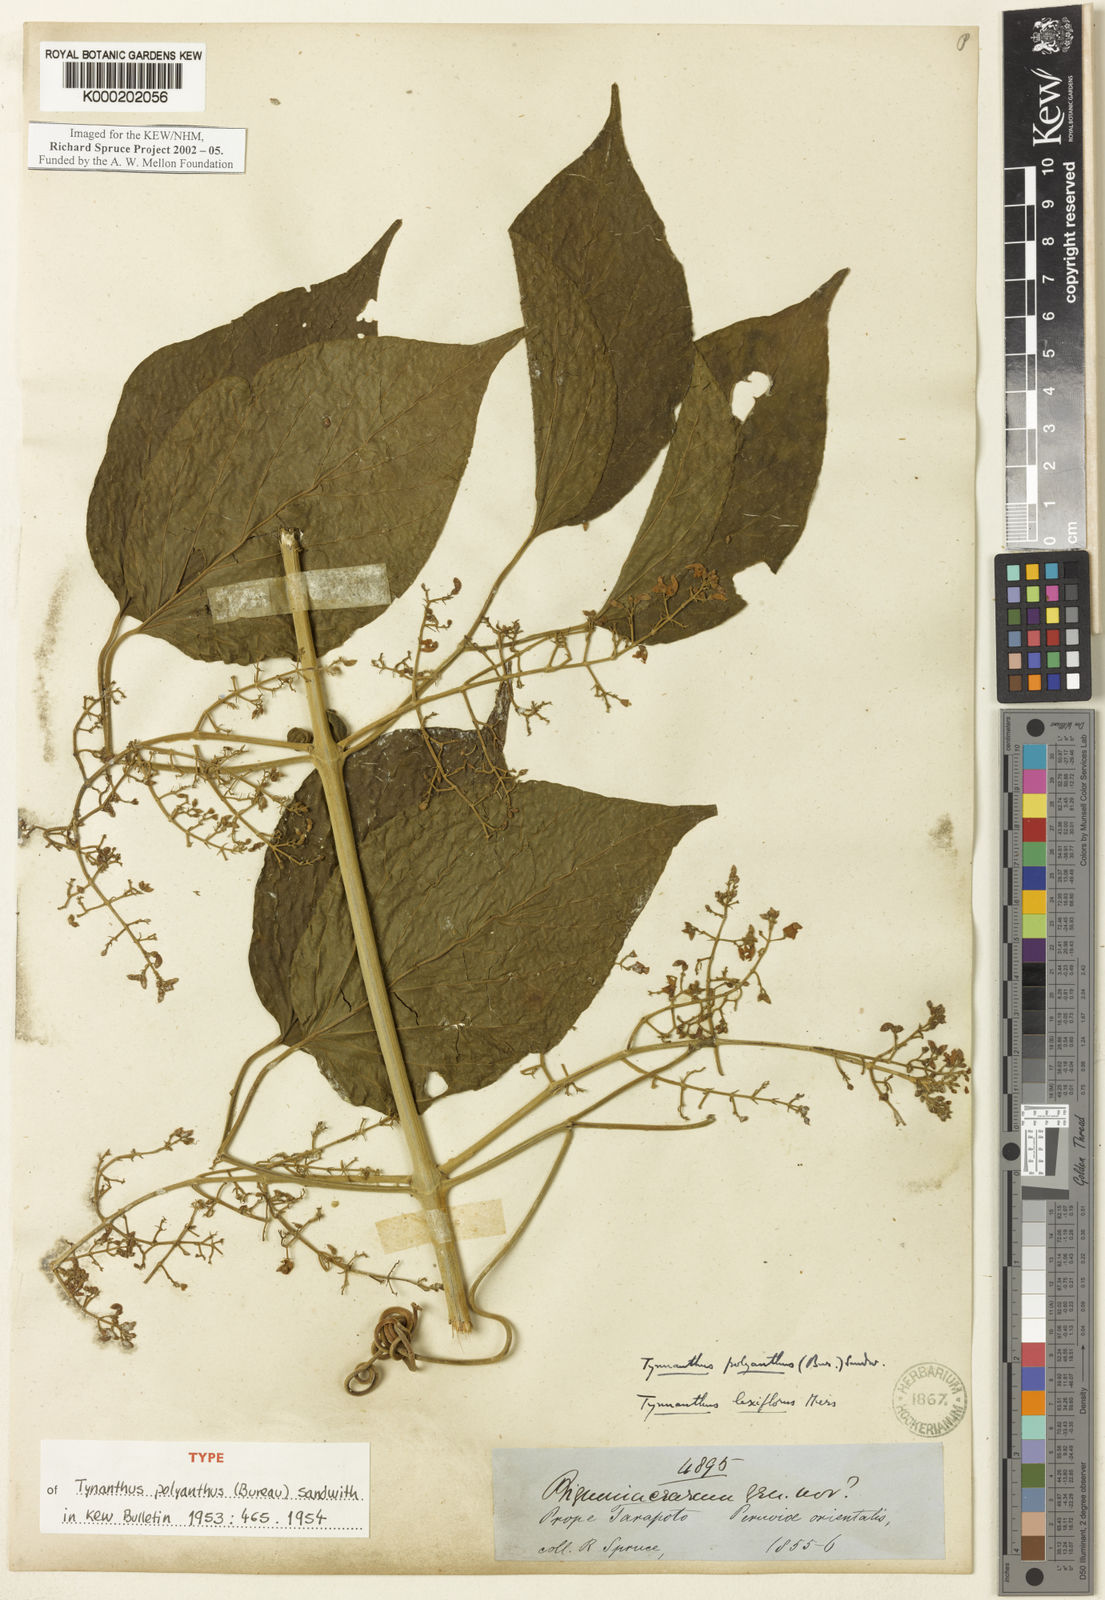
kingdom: Plantae
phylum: Tracheophyta
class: Magnoliopsida
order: Lamiales
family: Bignoniaceae
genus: Tynanthus
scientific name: Tynanthus polyanthus
